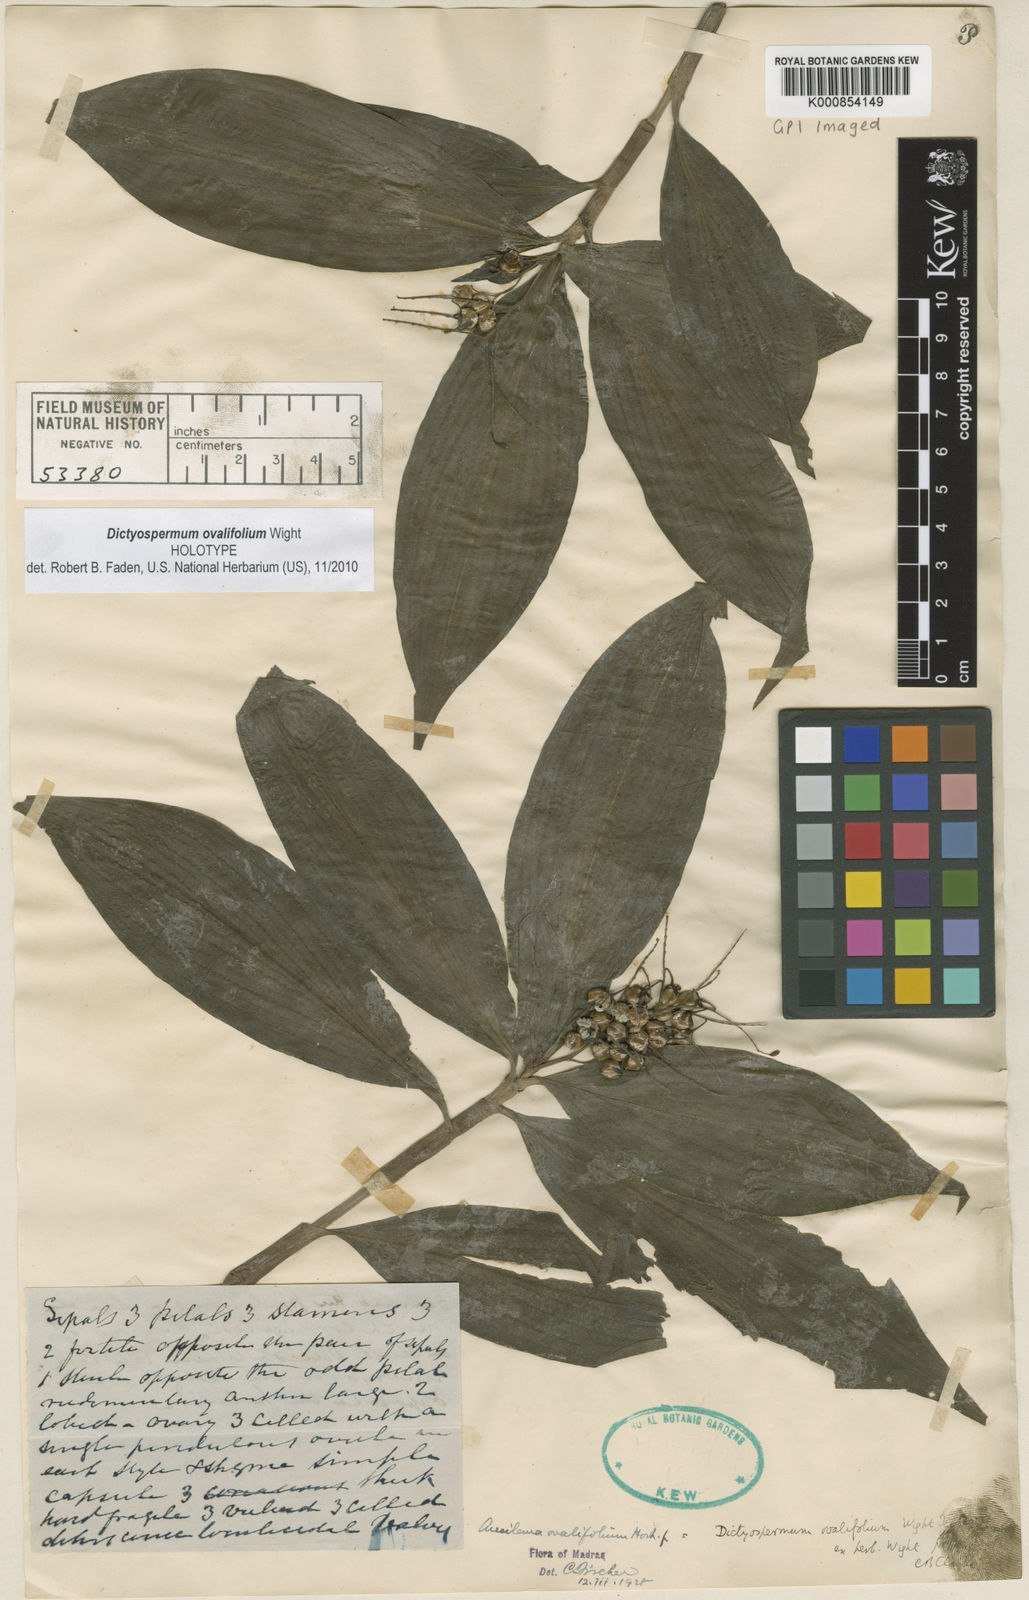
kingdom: Plantae
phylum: Tracheophyta
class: Liliopsida
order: Commelinales
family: Commelinaceae
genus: Dictyospermum
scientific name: Dictyospermum ovalifolium
